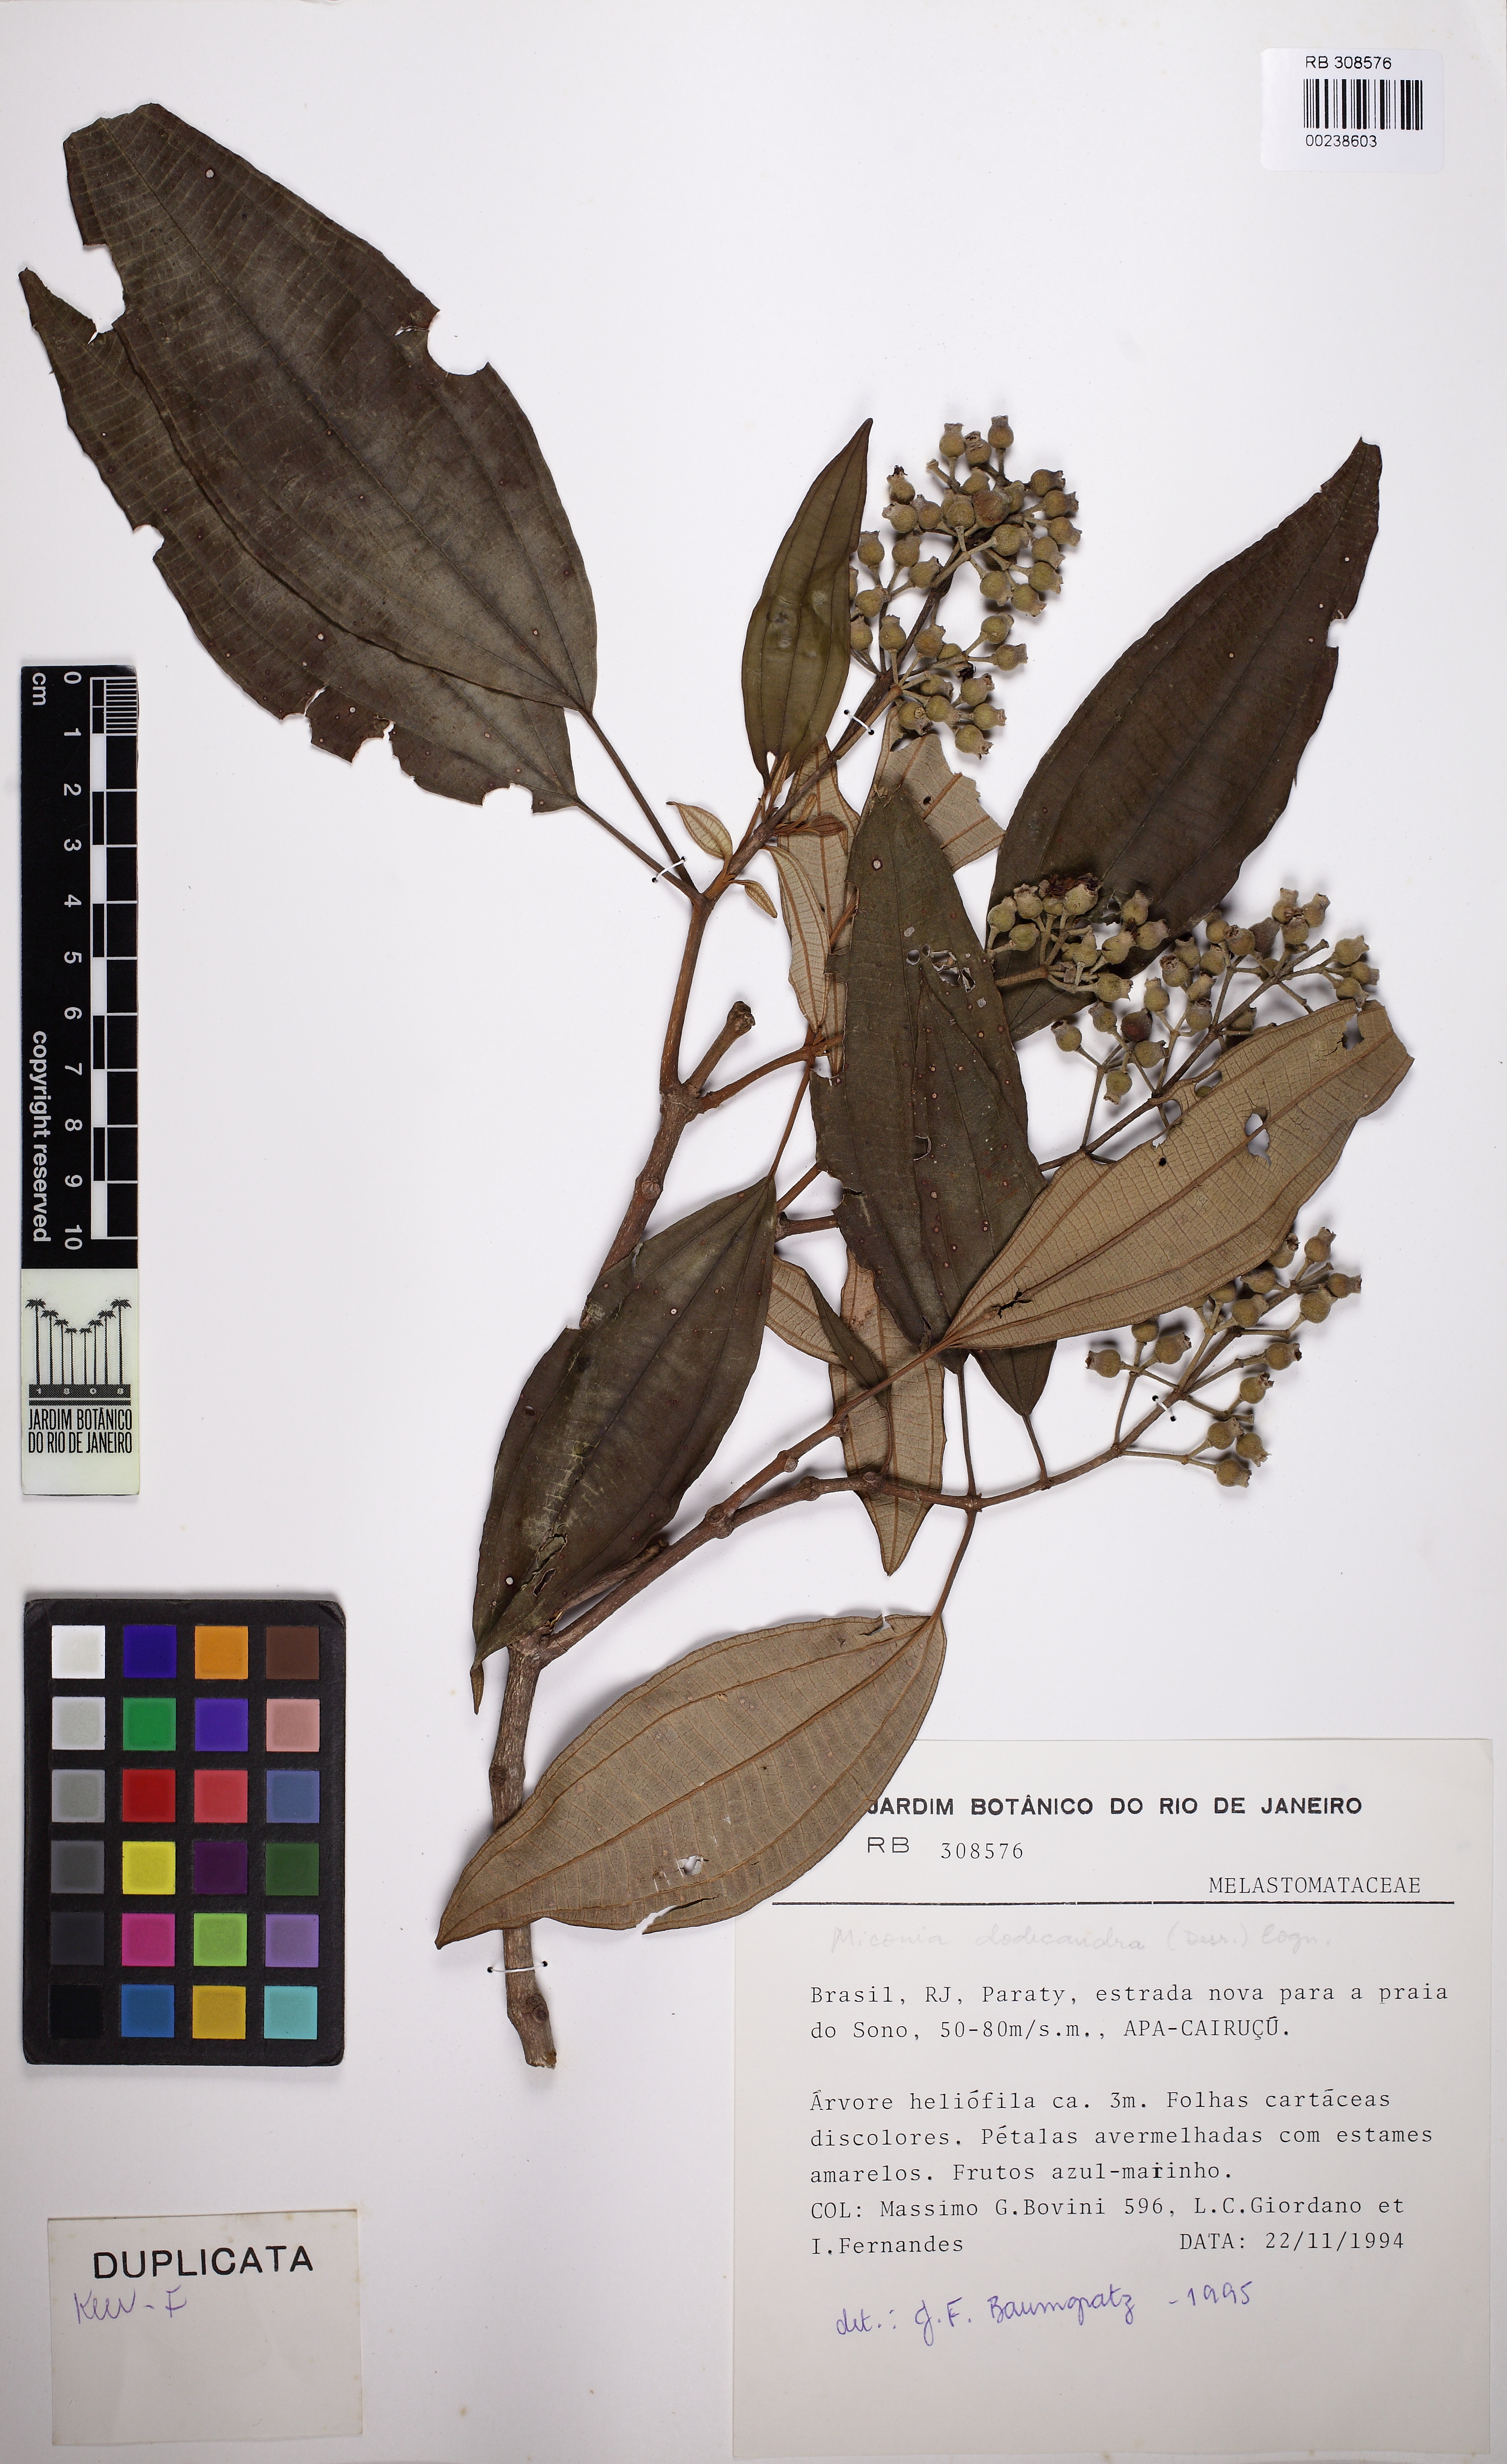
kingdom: Plantae
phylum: Tracheophyta
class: Magnoliopsida
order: Myrtales
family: Melastomataceae
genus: Miconia
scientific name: Miconia dodecandra
